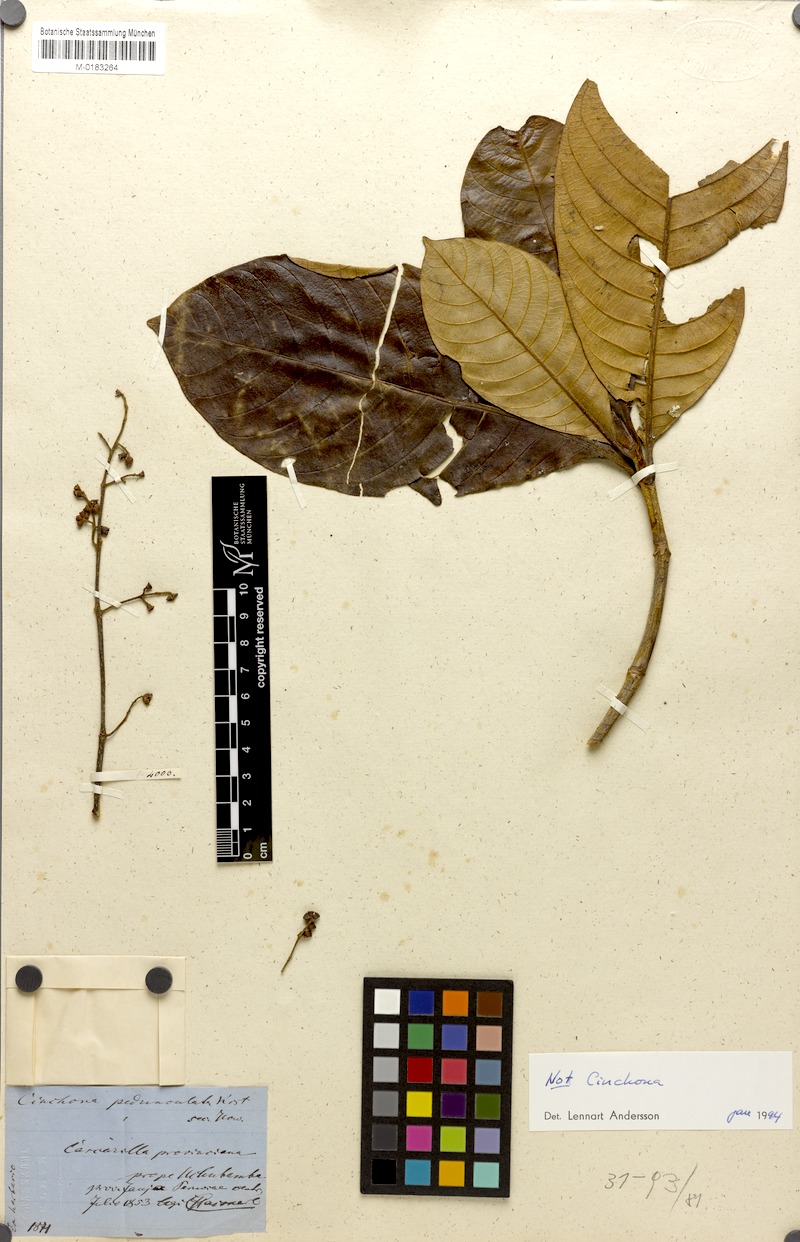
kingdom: Plantae
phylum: Tracheophyta
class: Magnoliopsida
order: Gentianales
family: Rubiaceae
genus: Cinchona
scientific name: Cinchona calisaya
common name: Ledgerbark
